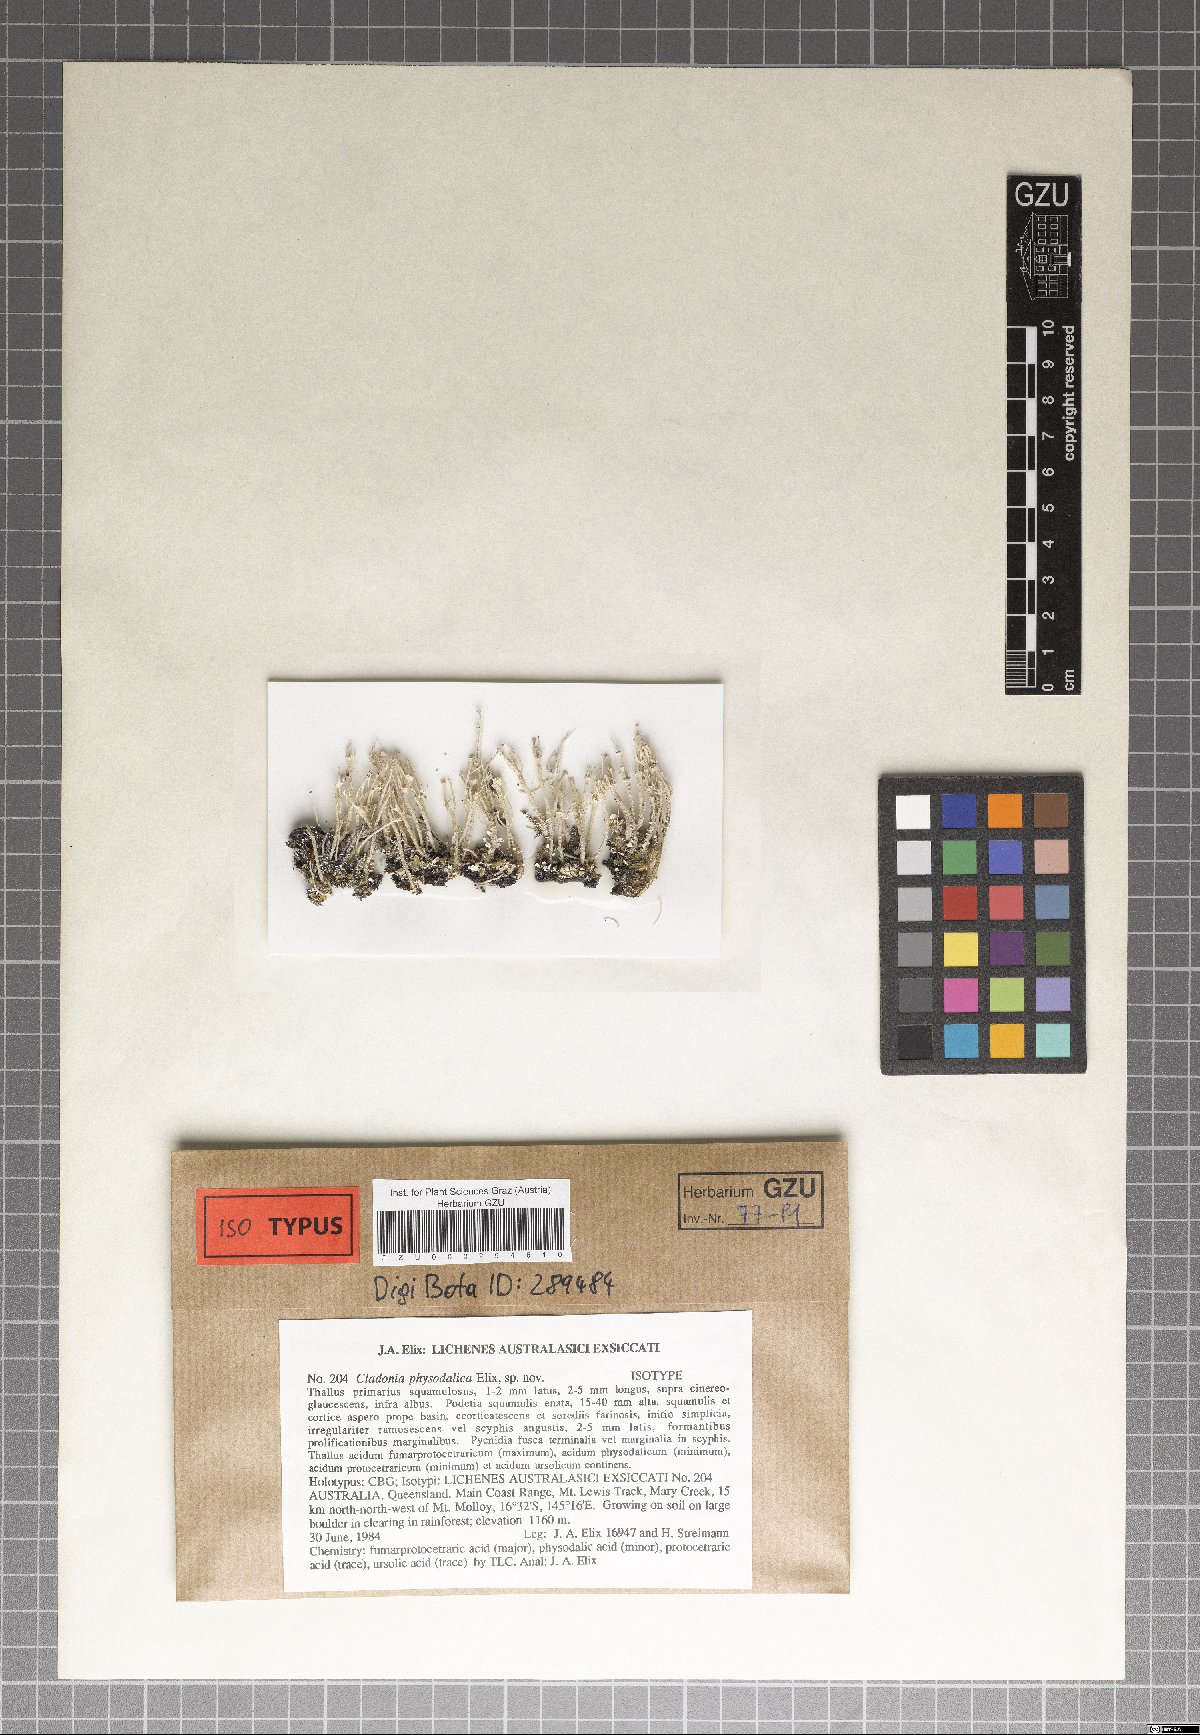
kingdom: Fungi
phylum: Ascomycota
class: Lecanoromycetes
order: Lecanorales
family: Cladoniaceae
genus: Cladonia
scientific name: Cladonia borbonica
